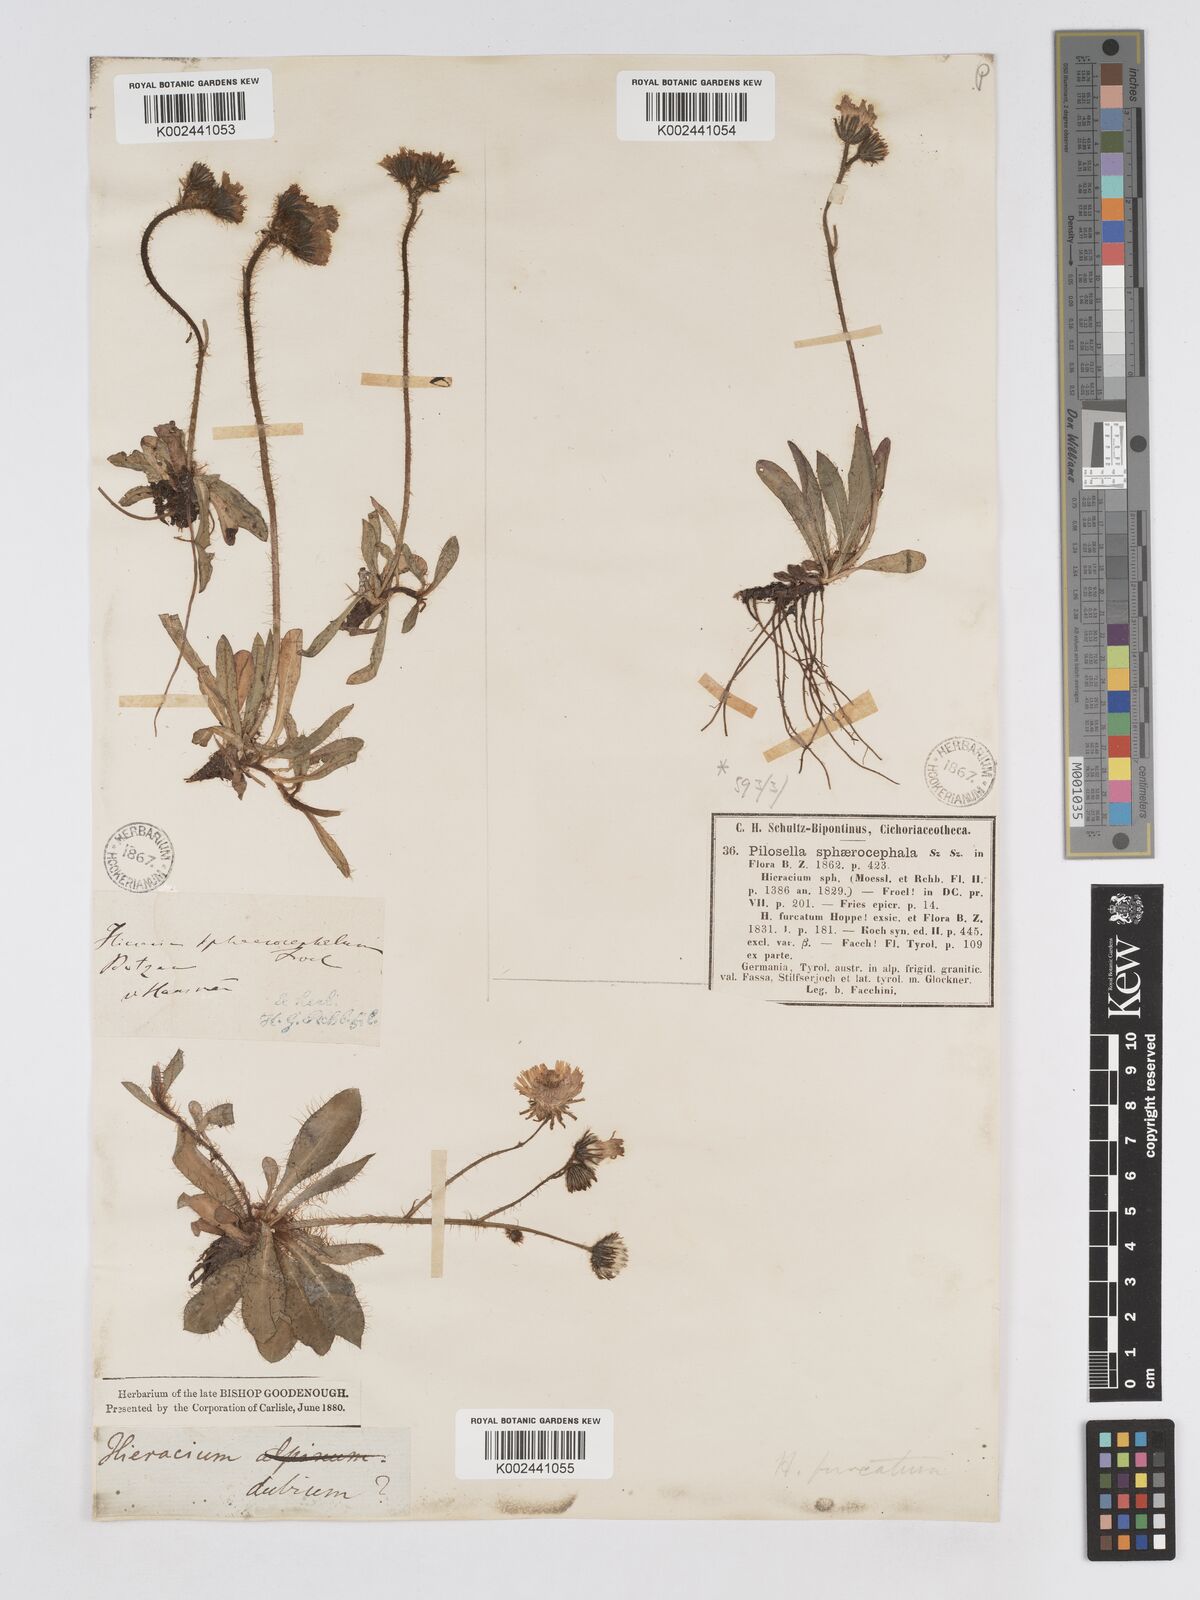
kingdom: Plantae
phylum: Tracheophyta
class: Magnoliopsida
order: Asterales
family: Asteraceae
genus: Pilosella
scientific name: Pilosella sphaerocephala
